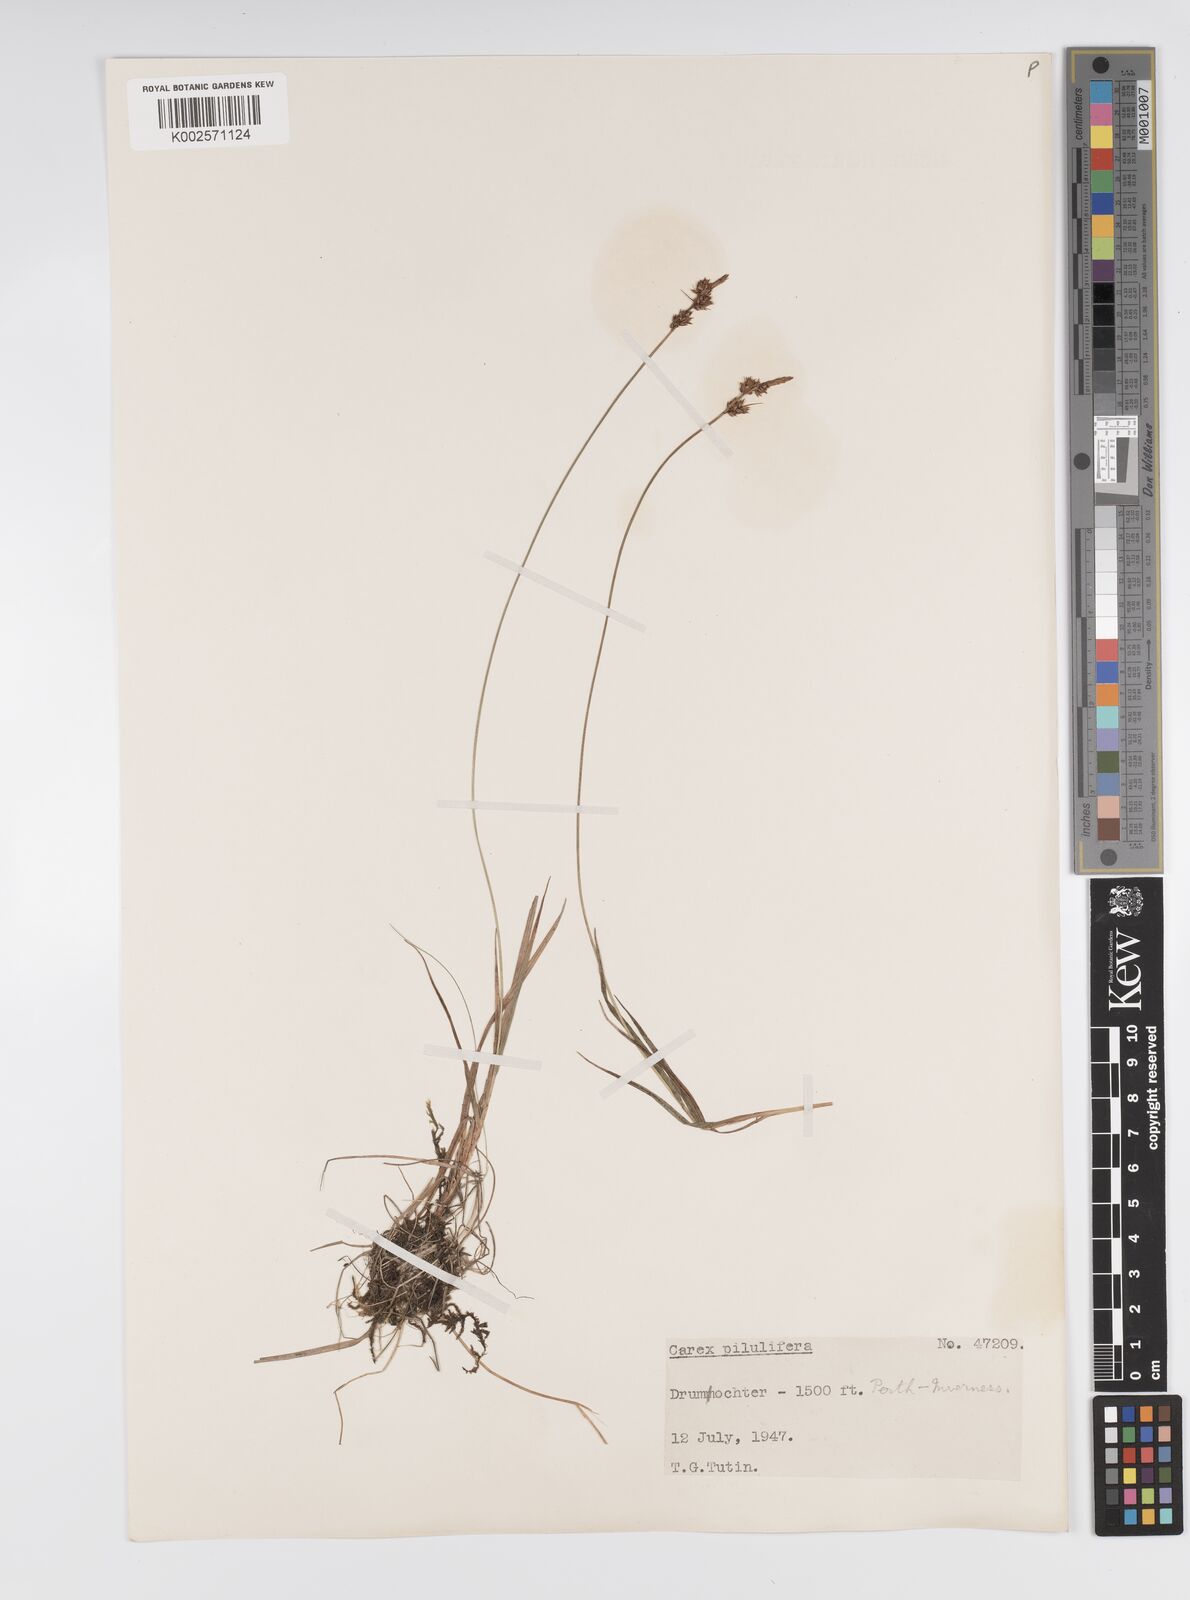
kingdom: Plantae
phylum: Tracheophyta
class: Liliopsida
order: Poales
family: Cyperaceae
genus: Carex
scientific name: Carex pilulifera
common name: Pill sedge
